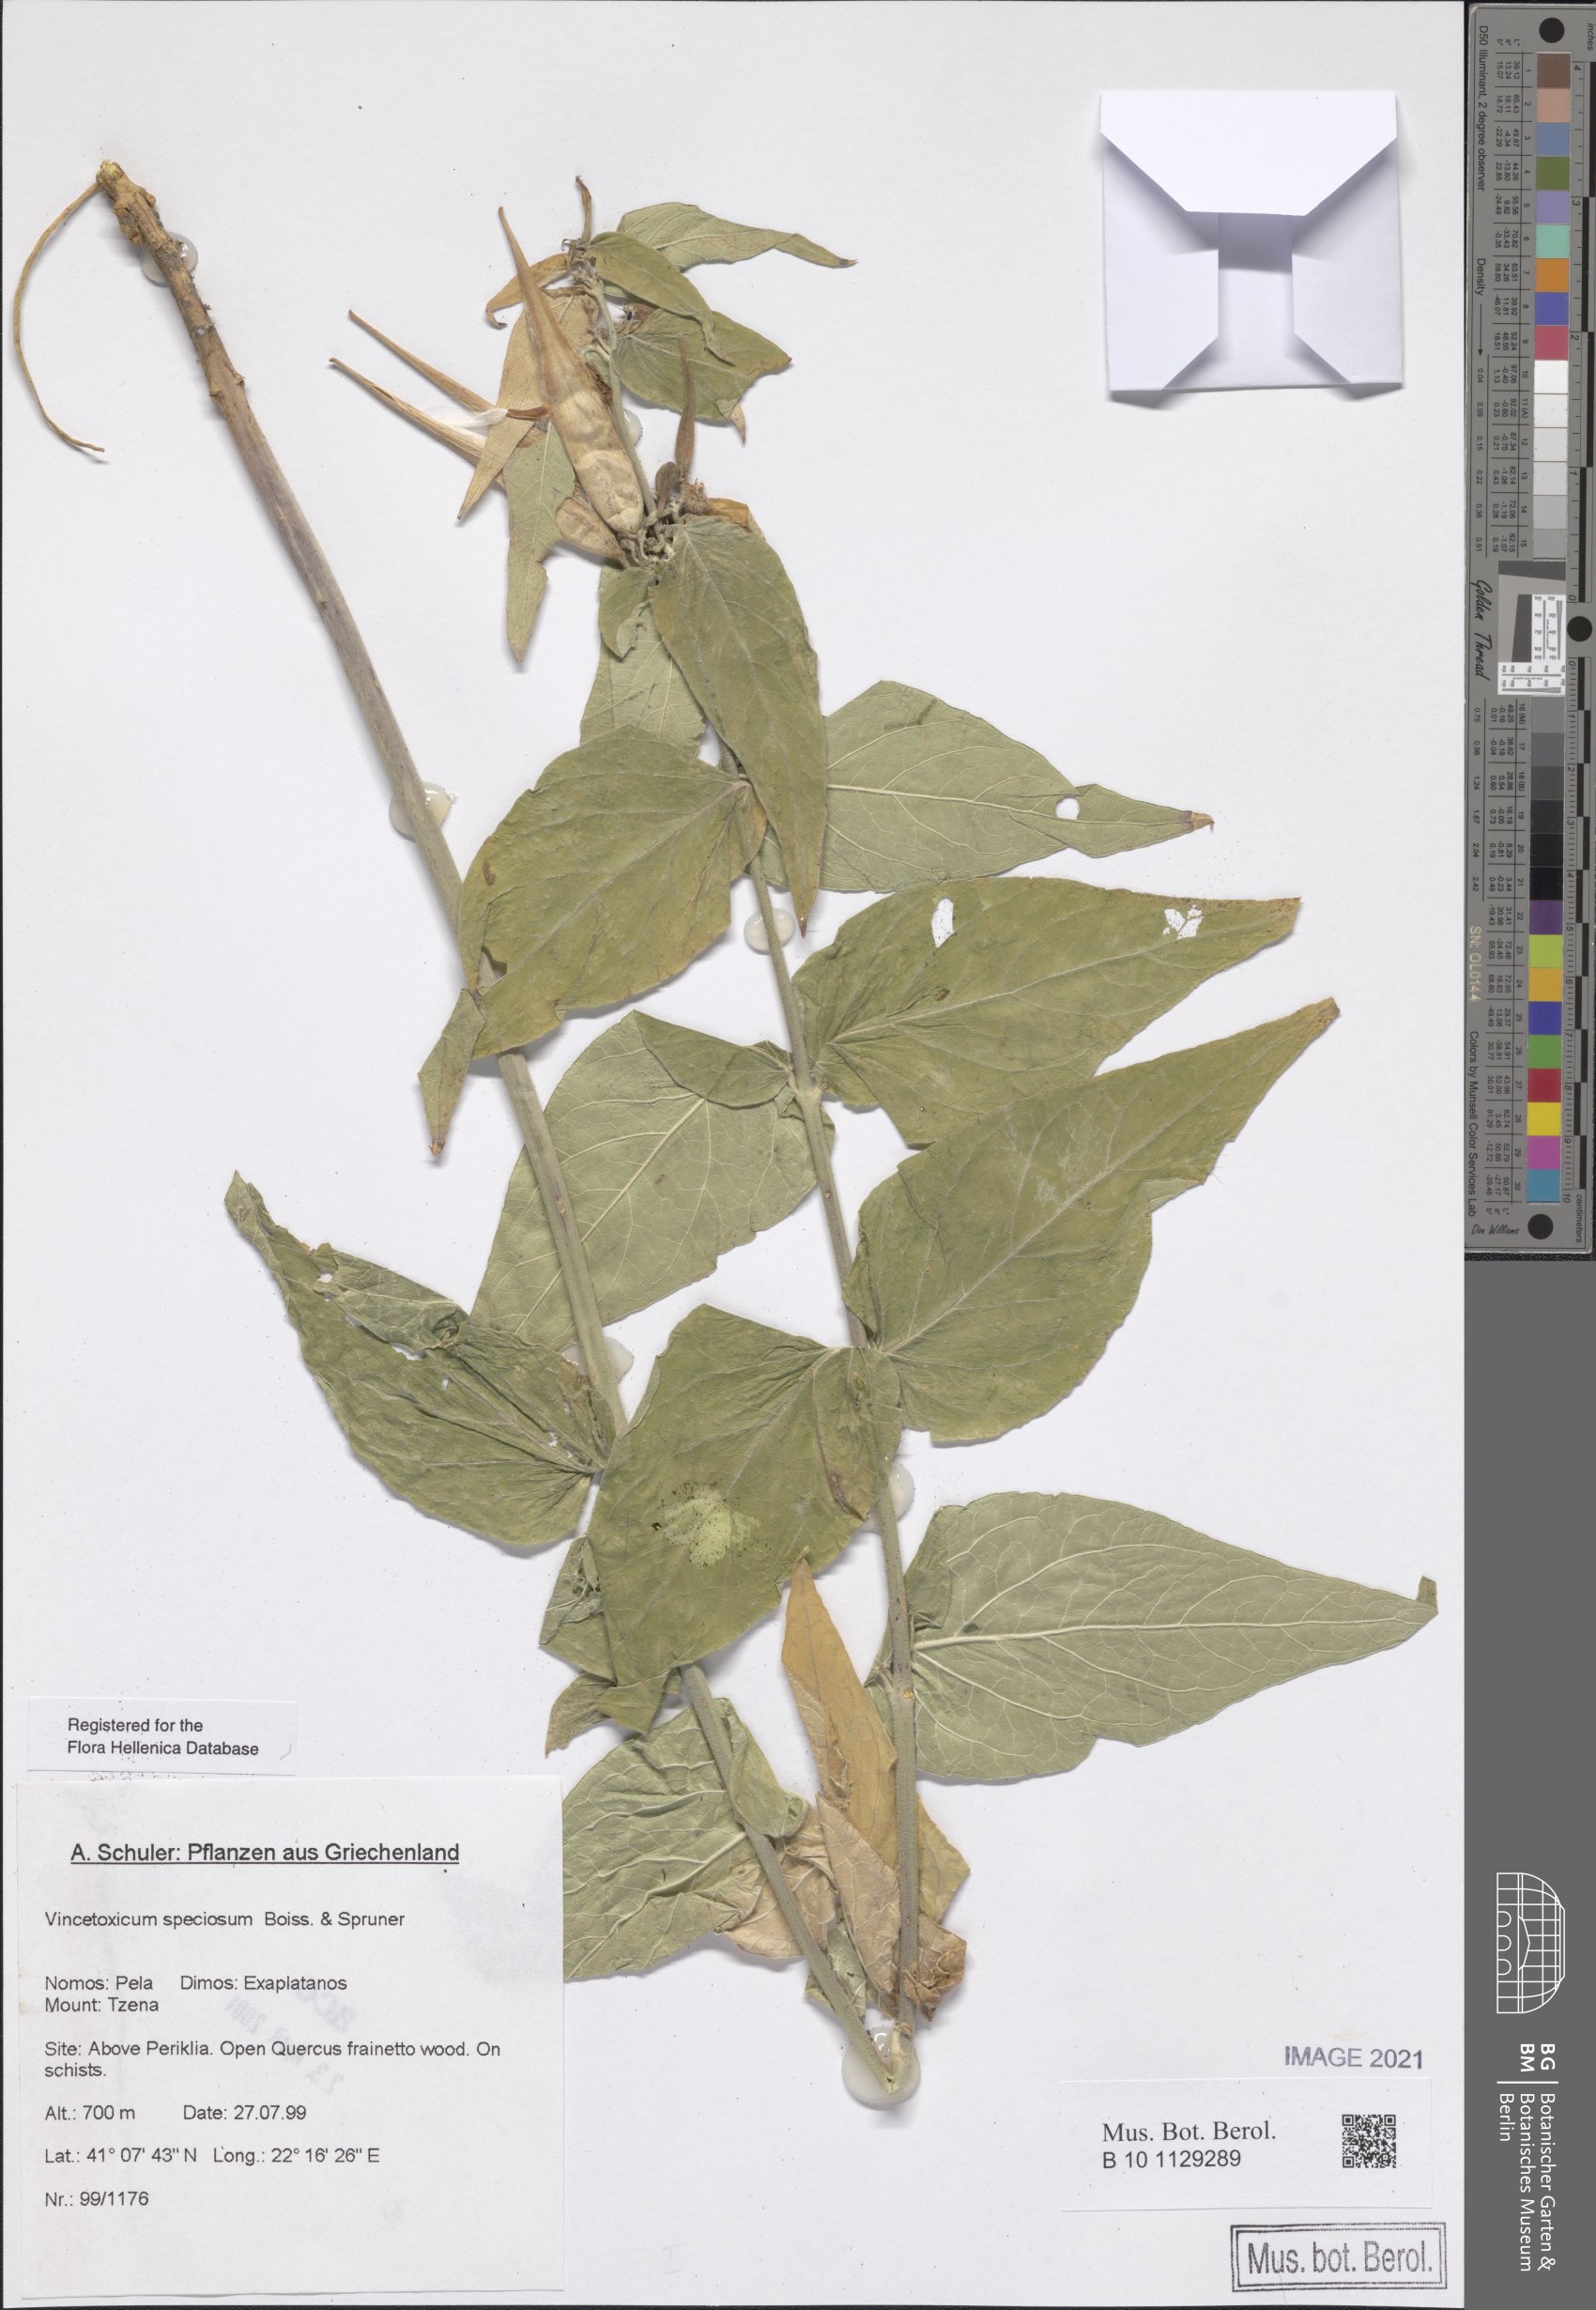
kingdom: Plantae
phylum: Tracheophyta
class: Magnoliopsida
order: Gentianales
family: Apocynaceae
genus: Vincetoxicum
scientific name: Vincetoxicum speciosum
